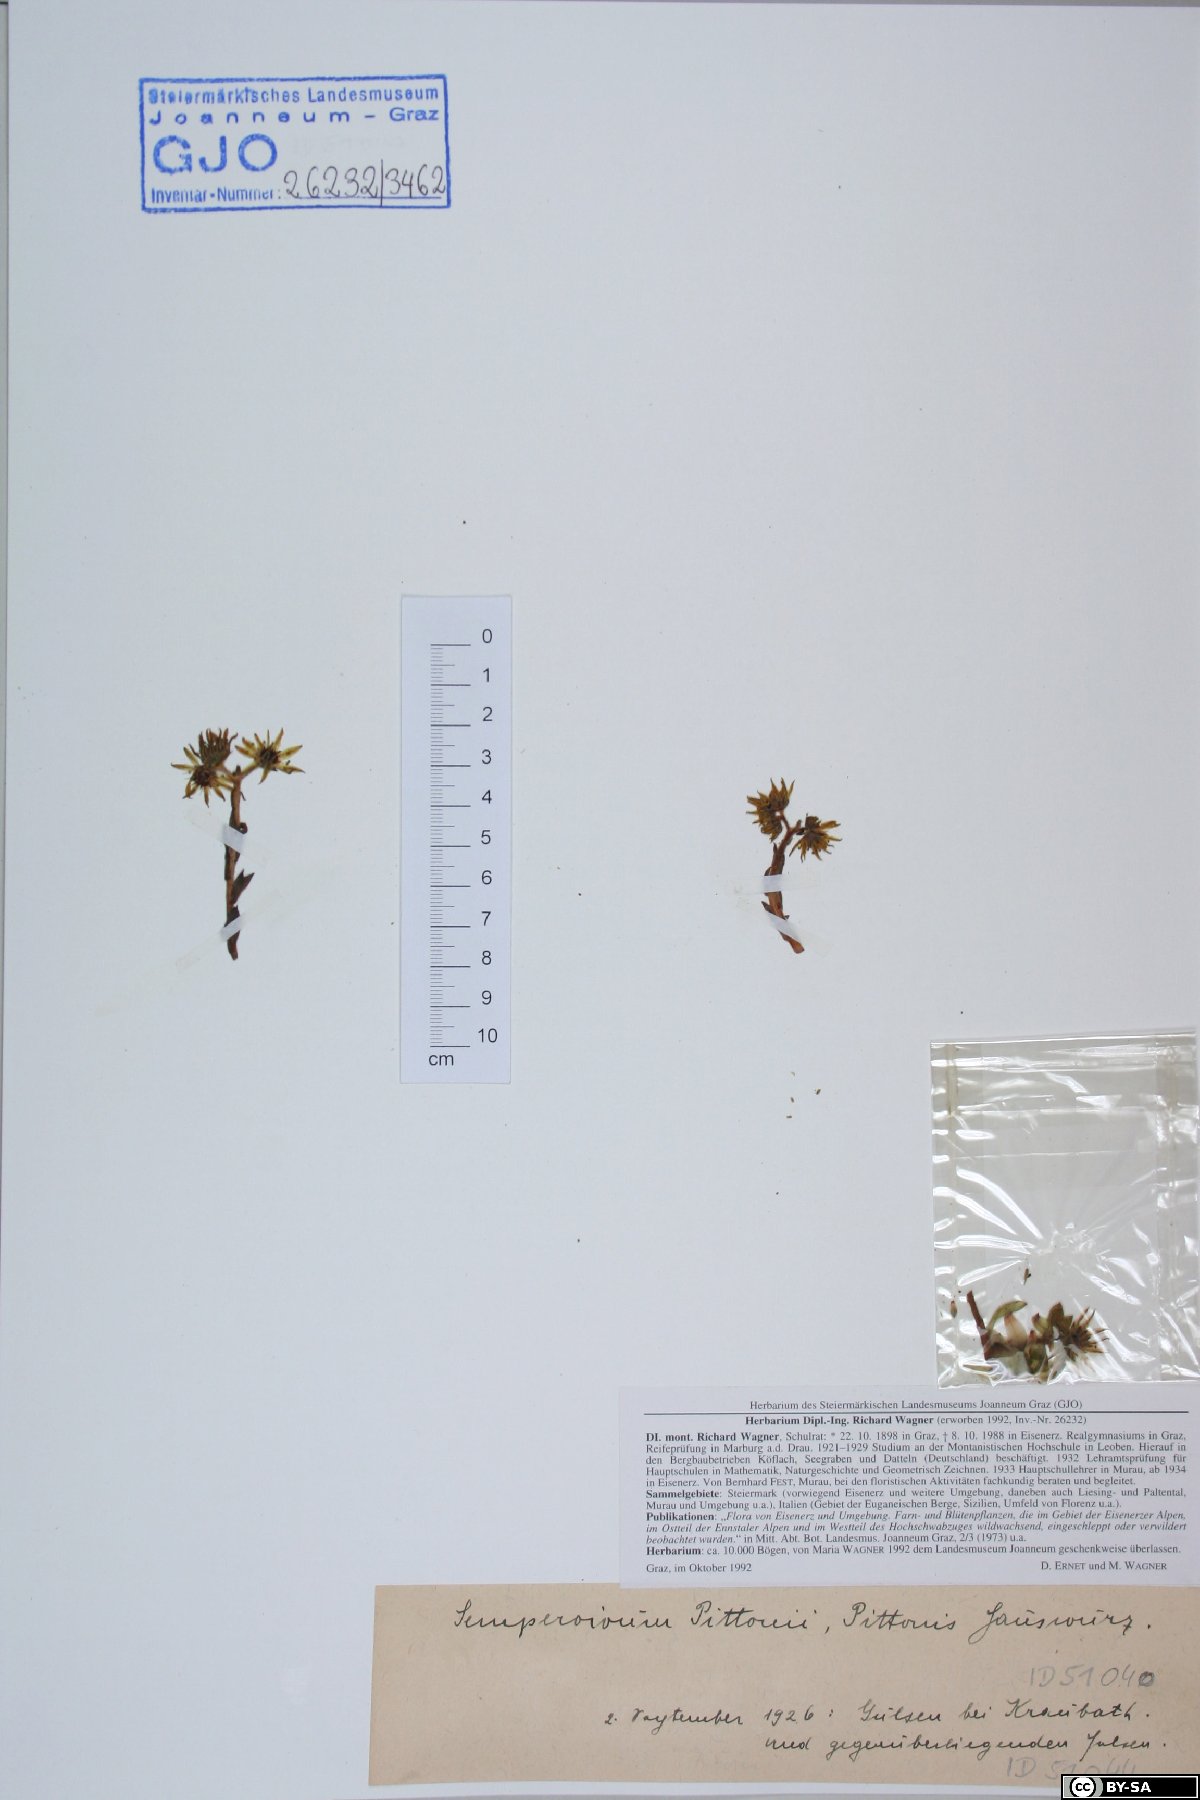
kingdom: Plantae
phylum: Tracheophyta
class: Magnoliopsida
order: Saxifragales
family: Crassulaceae
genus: Sempervivum
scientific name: Sempervivum pittonii
